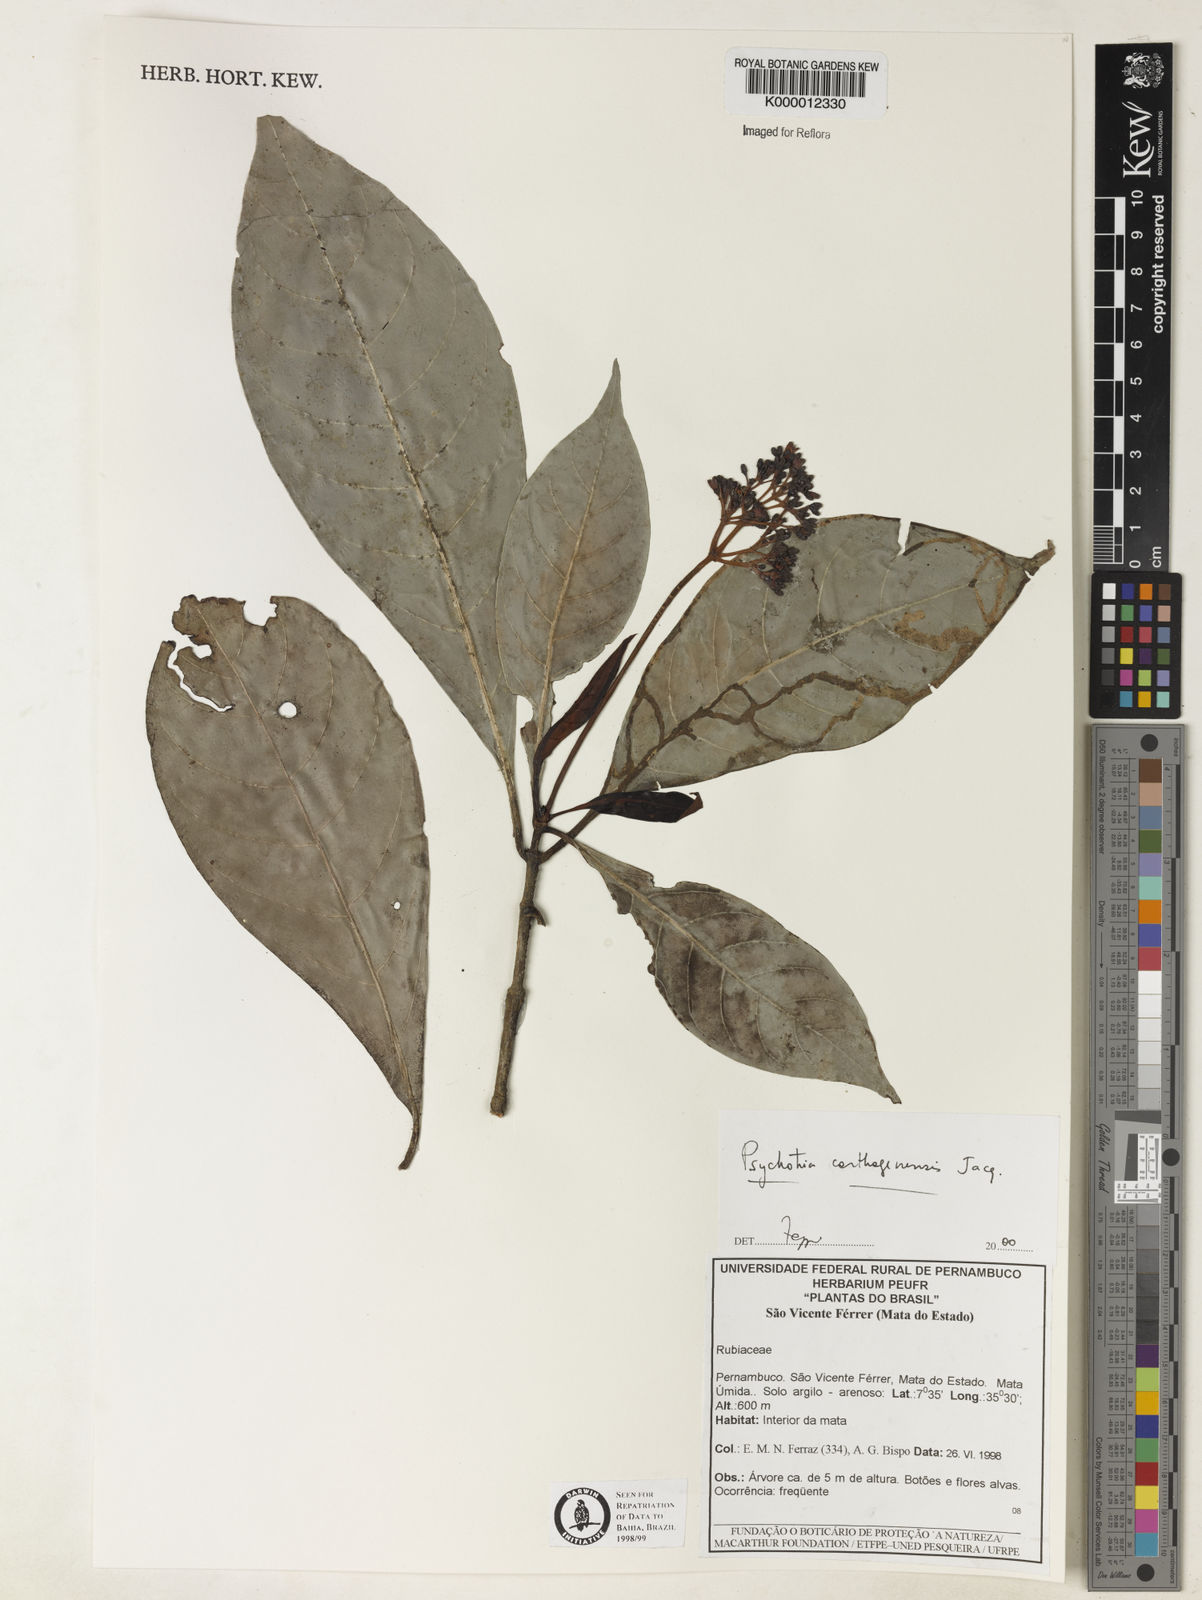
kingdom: Plantae
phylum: Tracheophyta
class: Magnoliopsida
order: Gentianales
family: Rubiaceae
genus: Psychotria
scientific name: Psychotria carthagenensis
